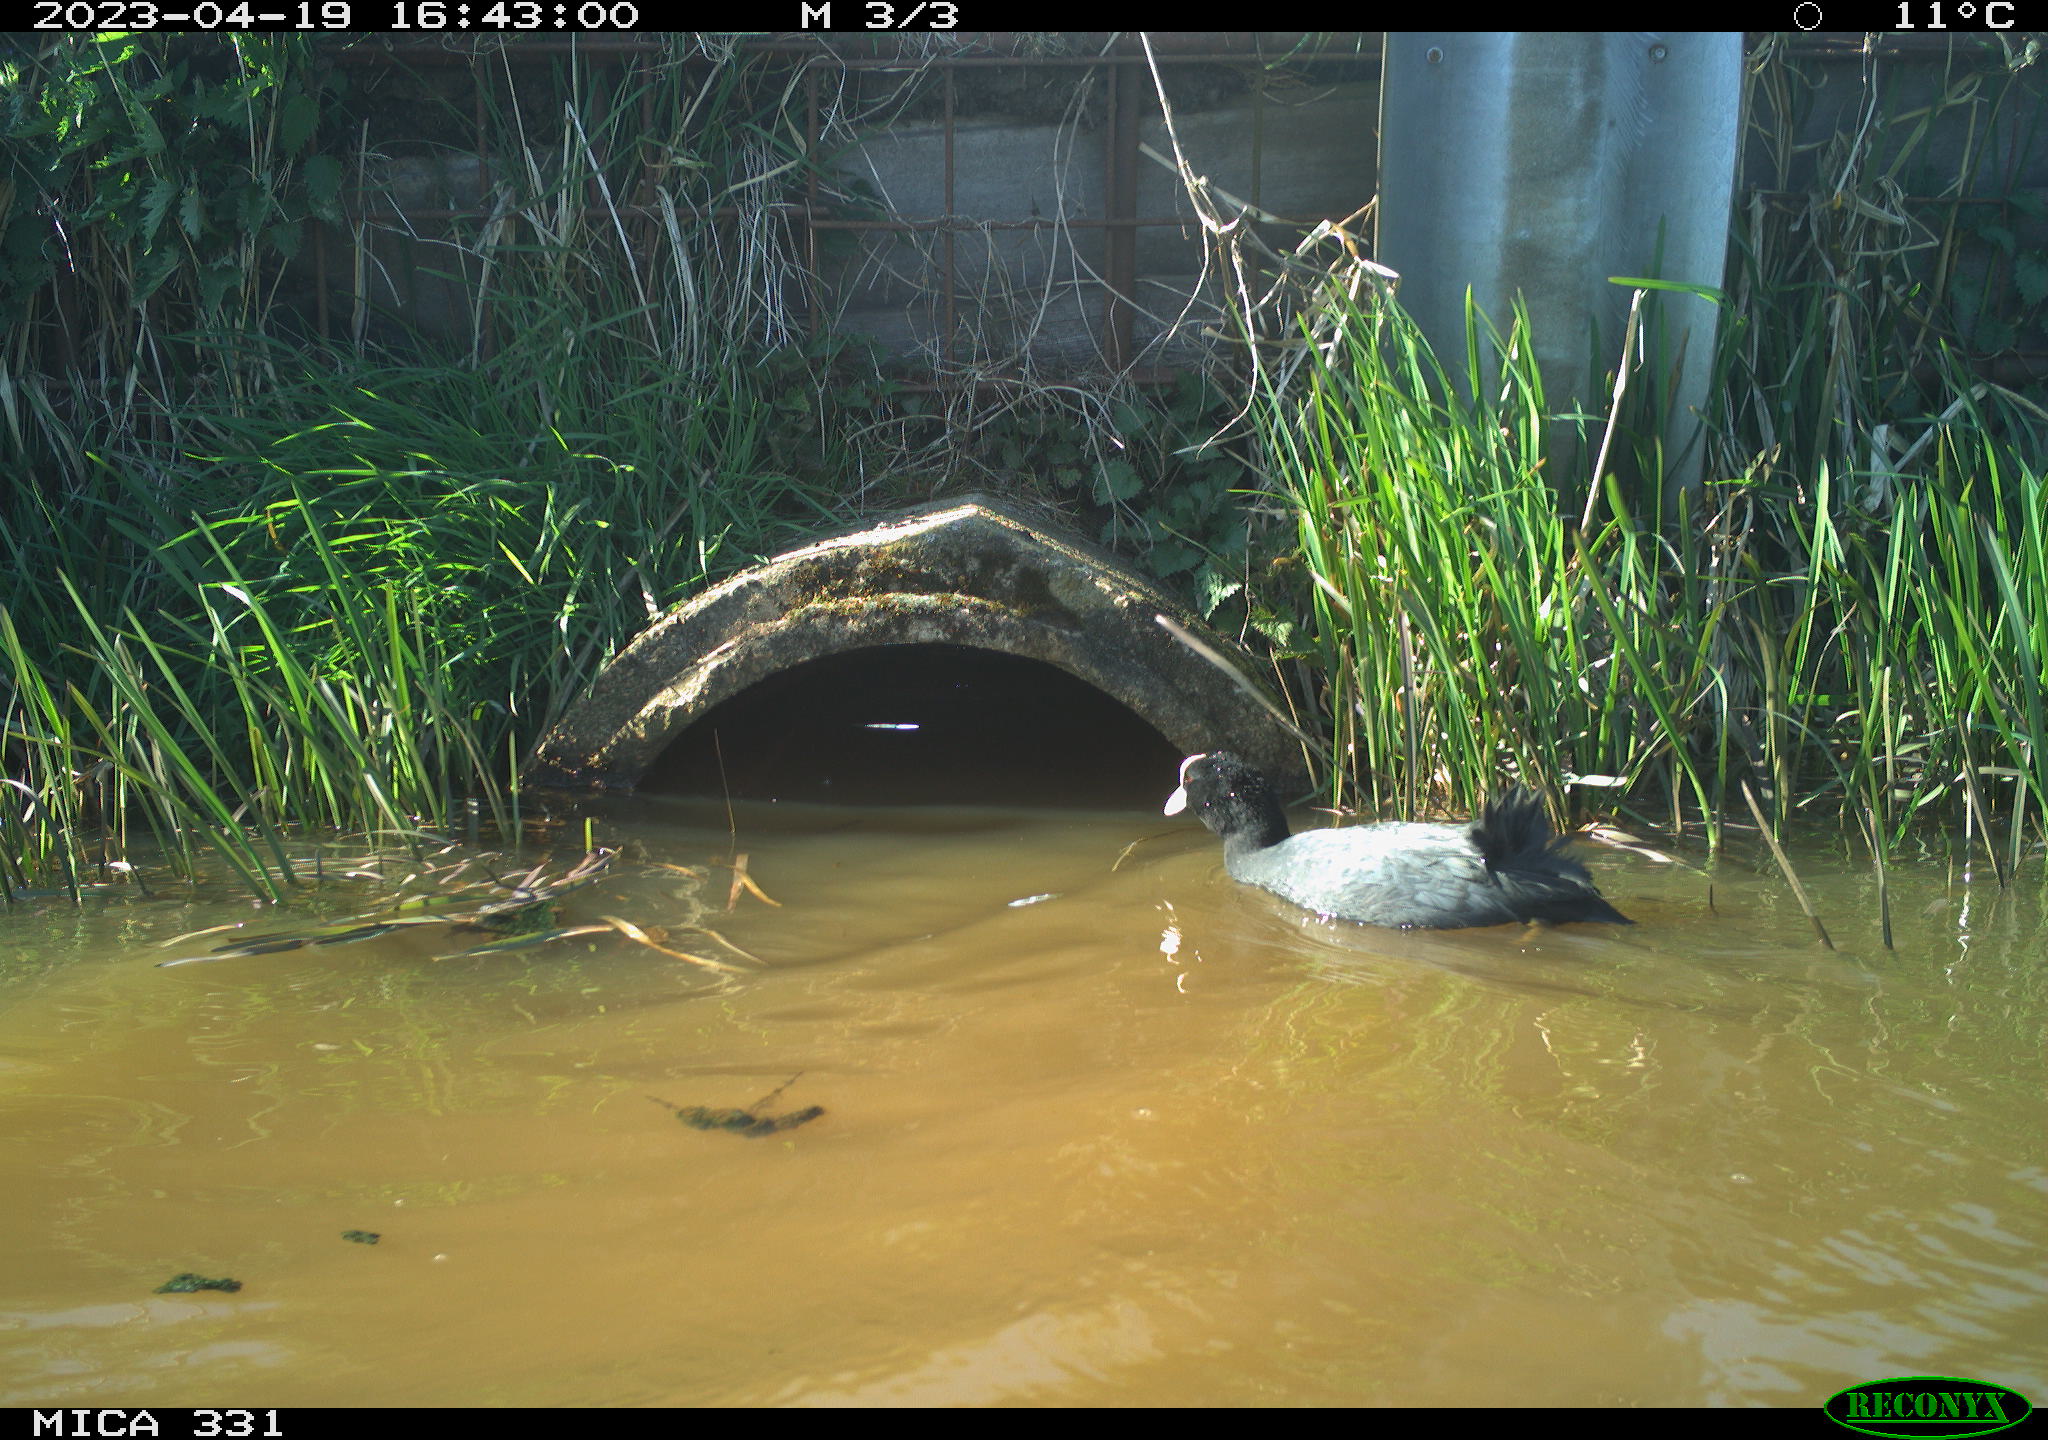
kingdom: Animalia
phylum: Chordata
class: Aves
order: Gruiformes
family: Rallidae
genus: Fulica
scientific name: Fulica atra
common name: Eurasian coot
